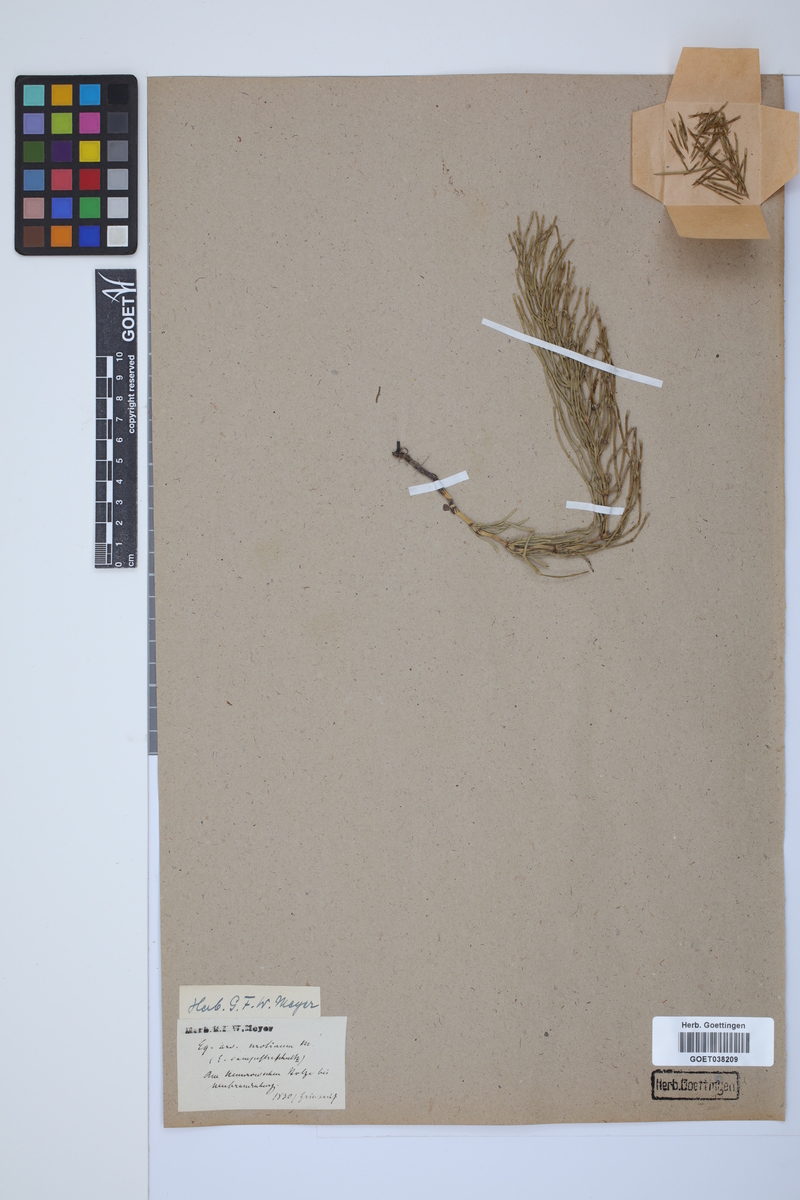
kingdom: Plantae
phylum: Tracheophyta
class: Polypodiopsida
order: Equisetales
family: Equisetaceae
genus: Equisetum
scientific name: Equisetum arvense
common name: Field horsetail
